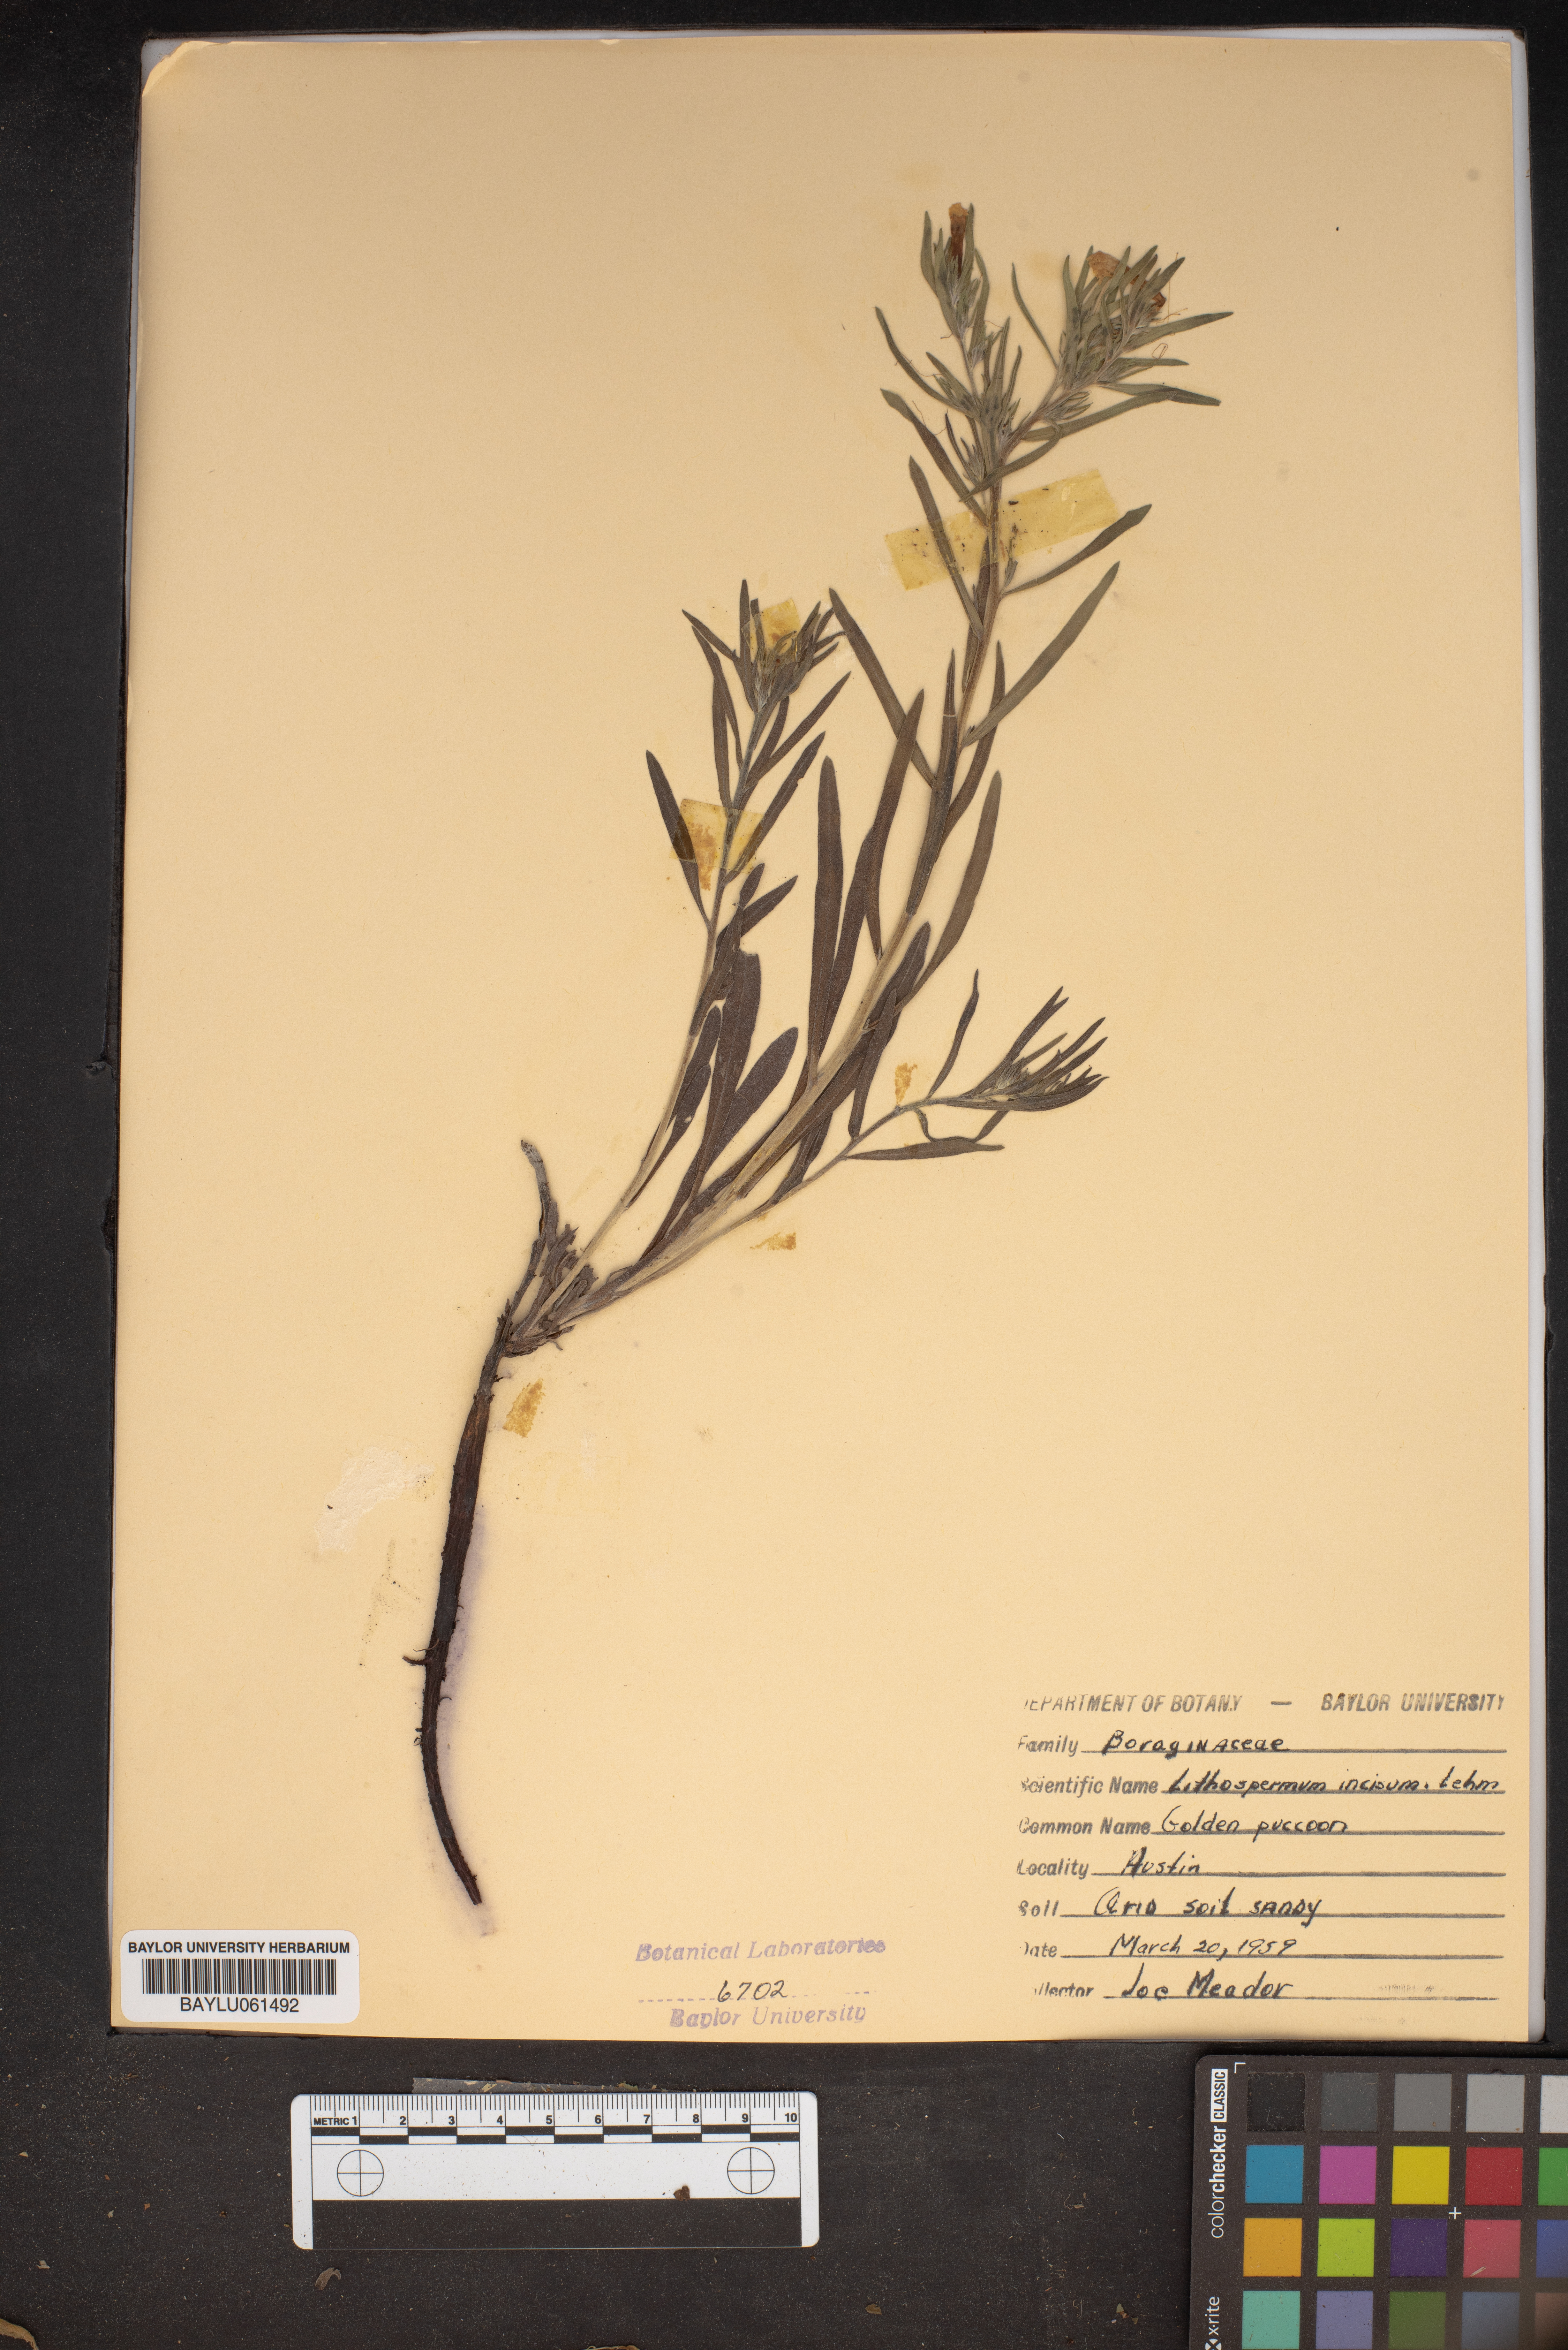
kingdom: Plantae
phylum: Tracheophyta
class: Magnoliopsida
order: Boraginales
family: Boraginaceae
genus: Lithospermum
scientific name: Lithospermum incisum
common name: Fringed gromwell
